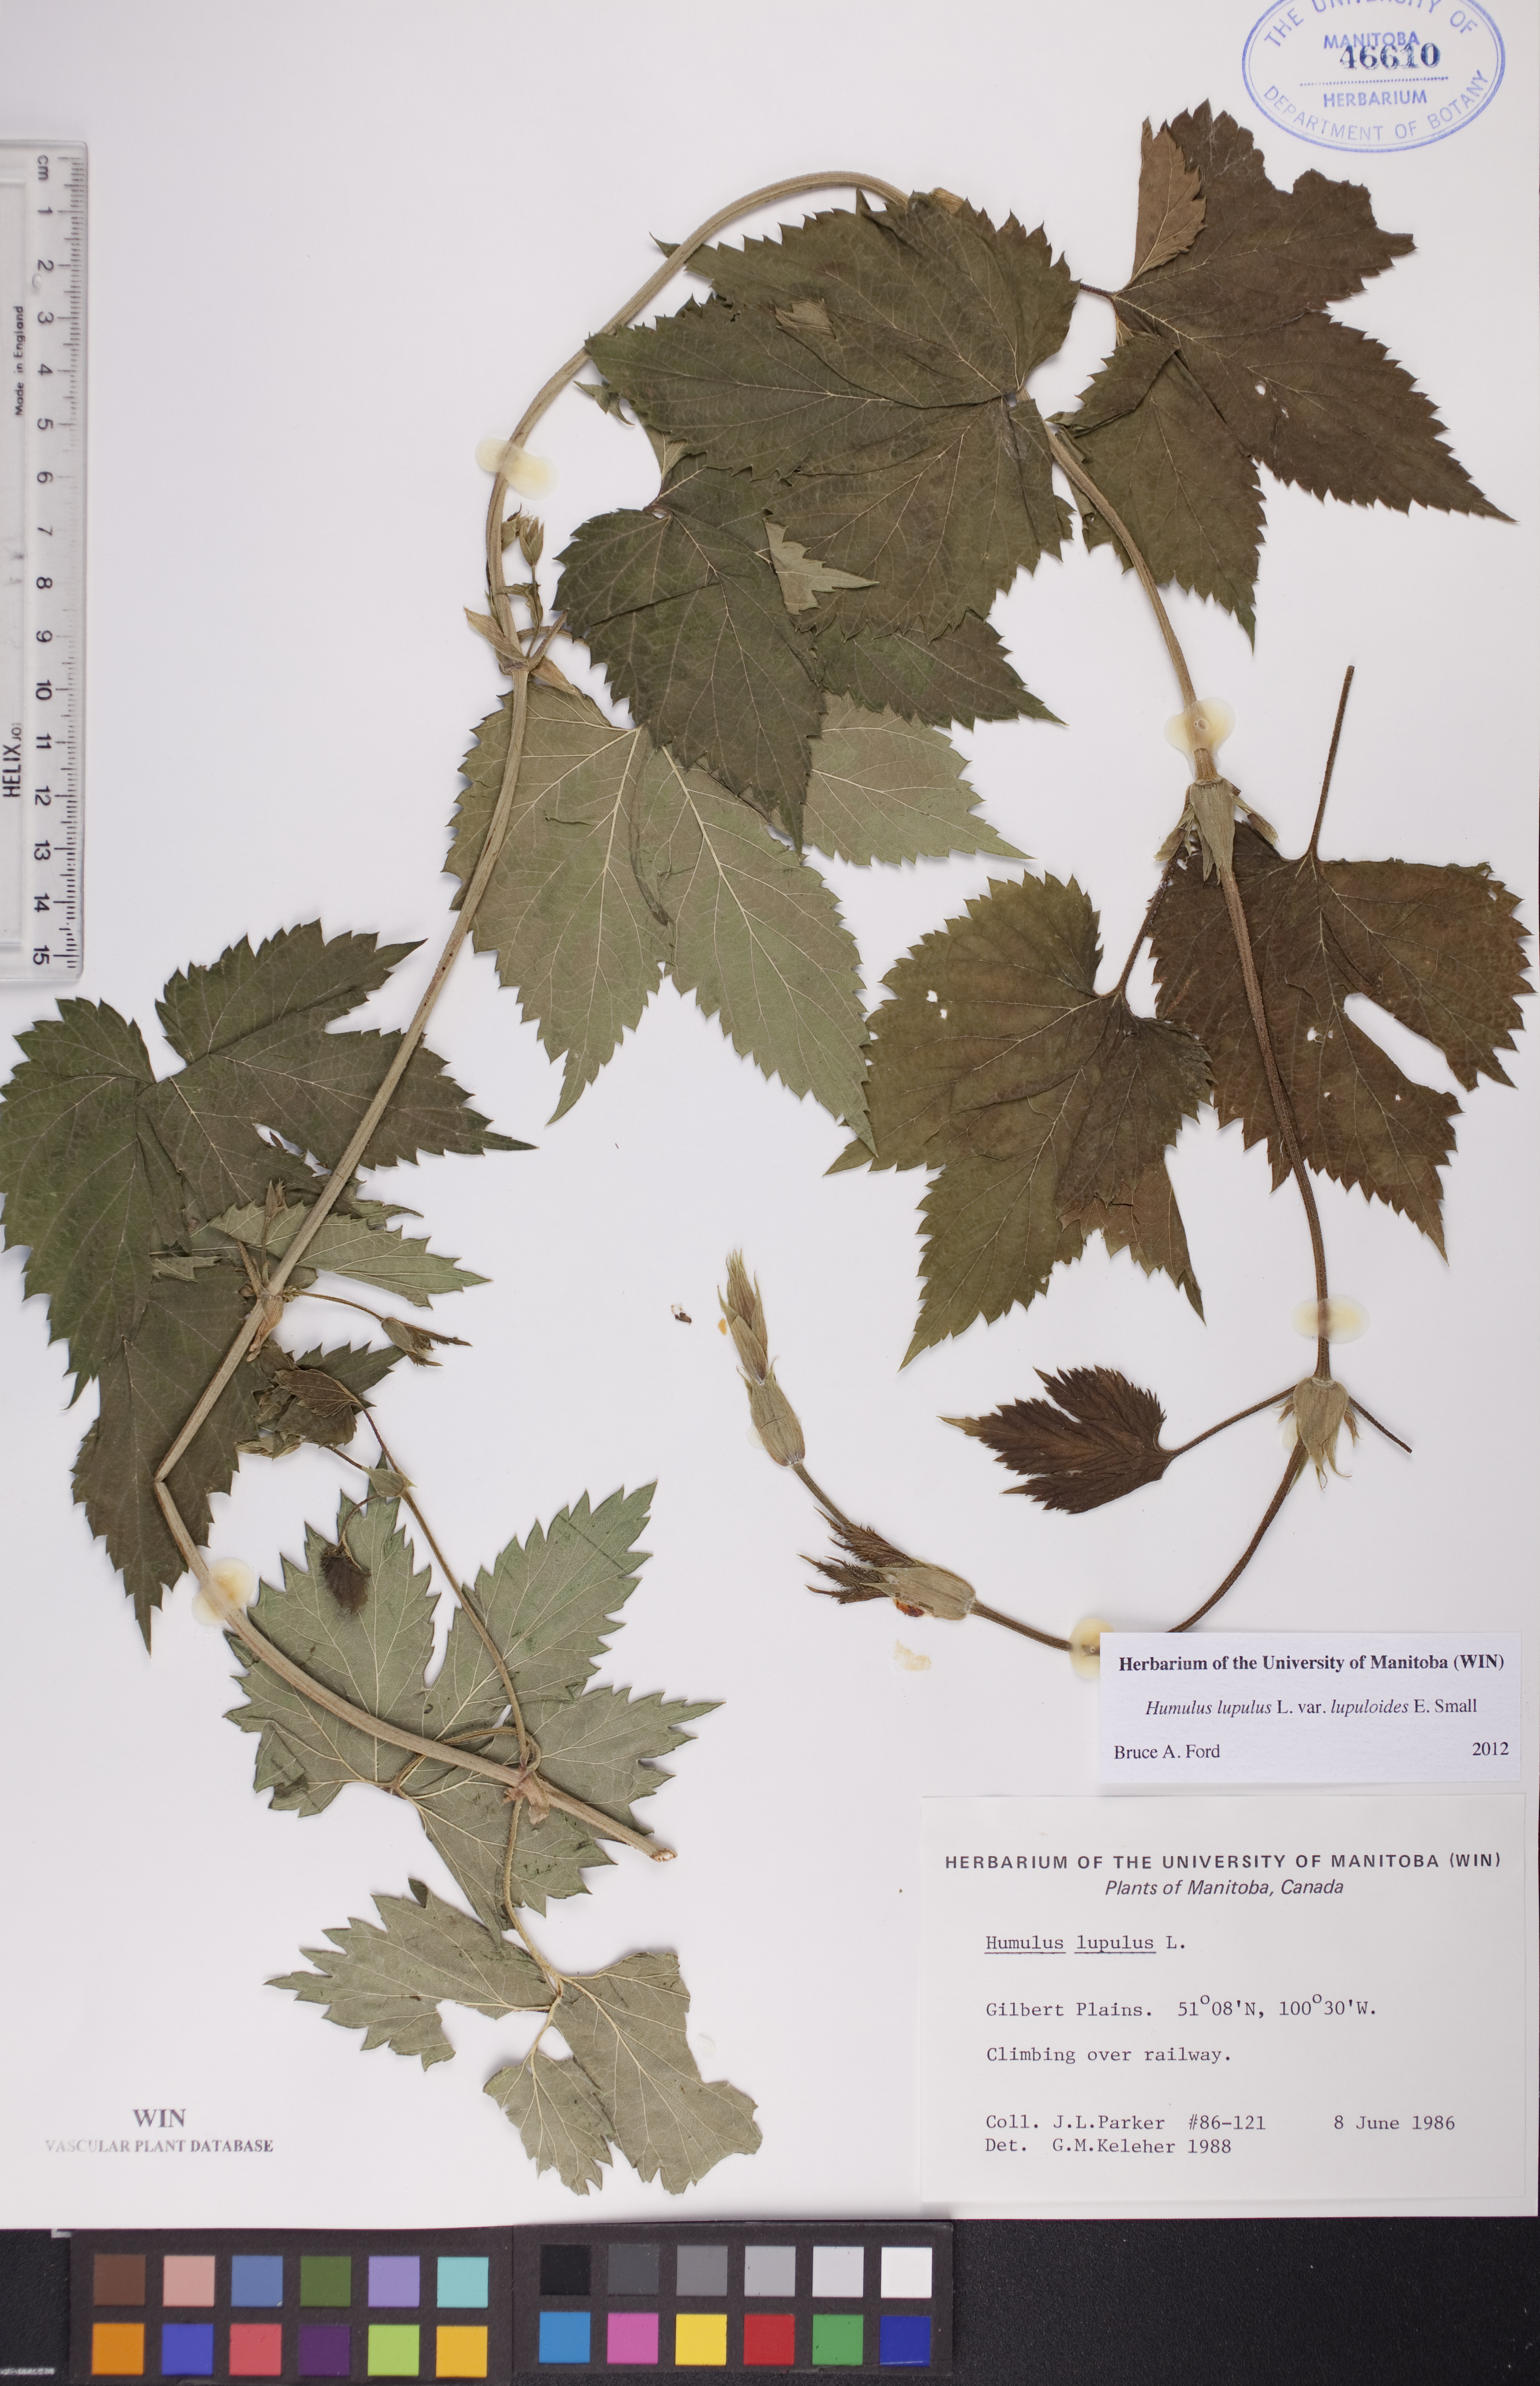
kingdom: Plantae
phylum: Tracheophyta
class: Magnoliopsida
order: Rosales
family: Cannabaceae
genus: Humulus
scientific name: Humulus americanus
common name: American hops
